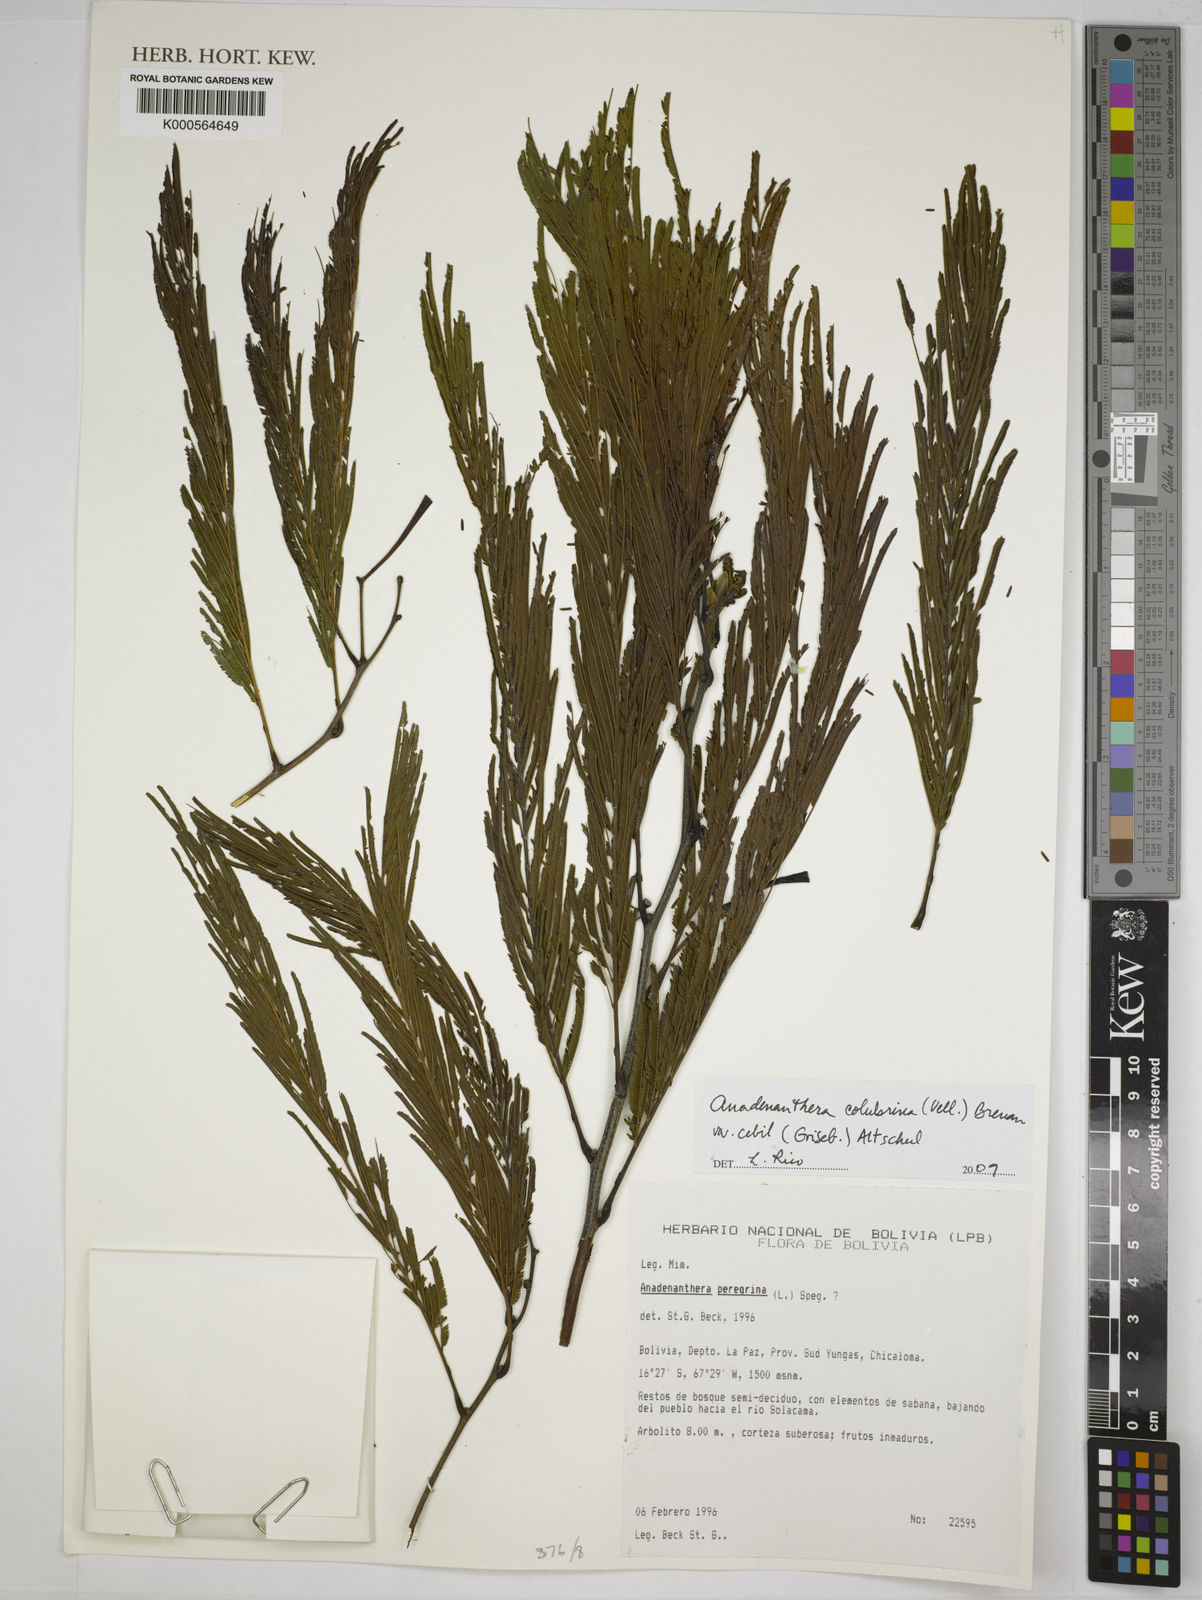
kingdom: Plantae
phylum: Tracheophyta
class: Magnoliopsida
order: Fabales
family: Fabaceae
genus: Anadenanthera
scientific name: Anadenanthera colubrina
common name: Curupay
